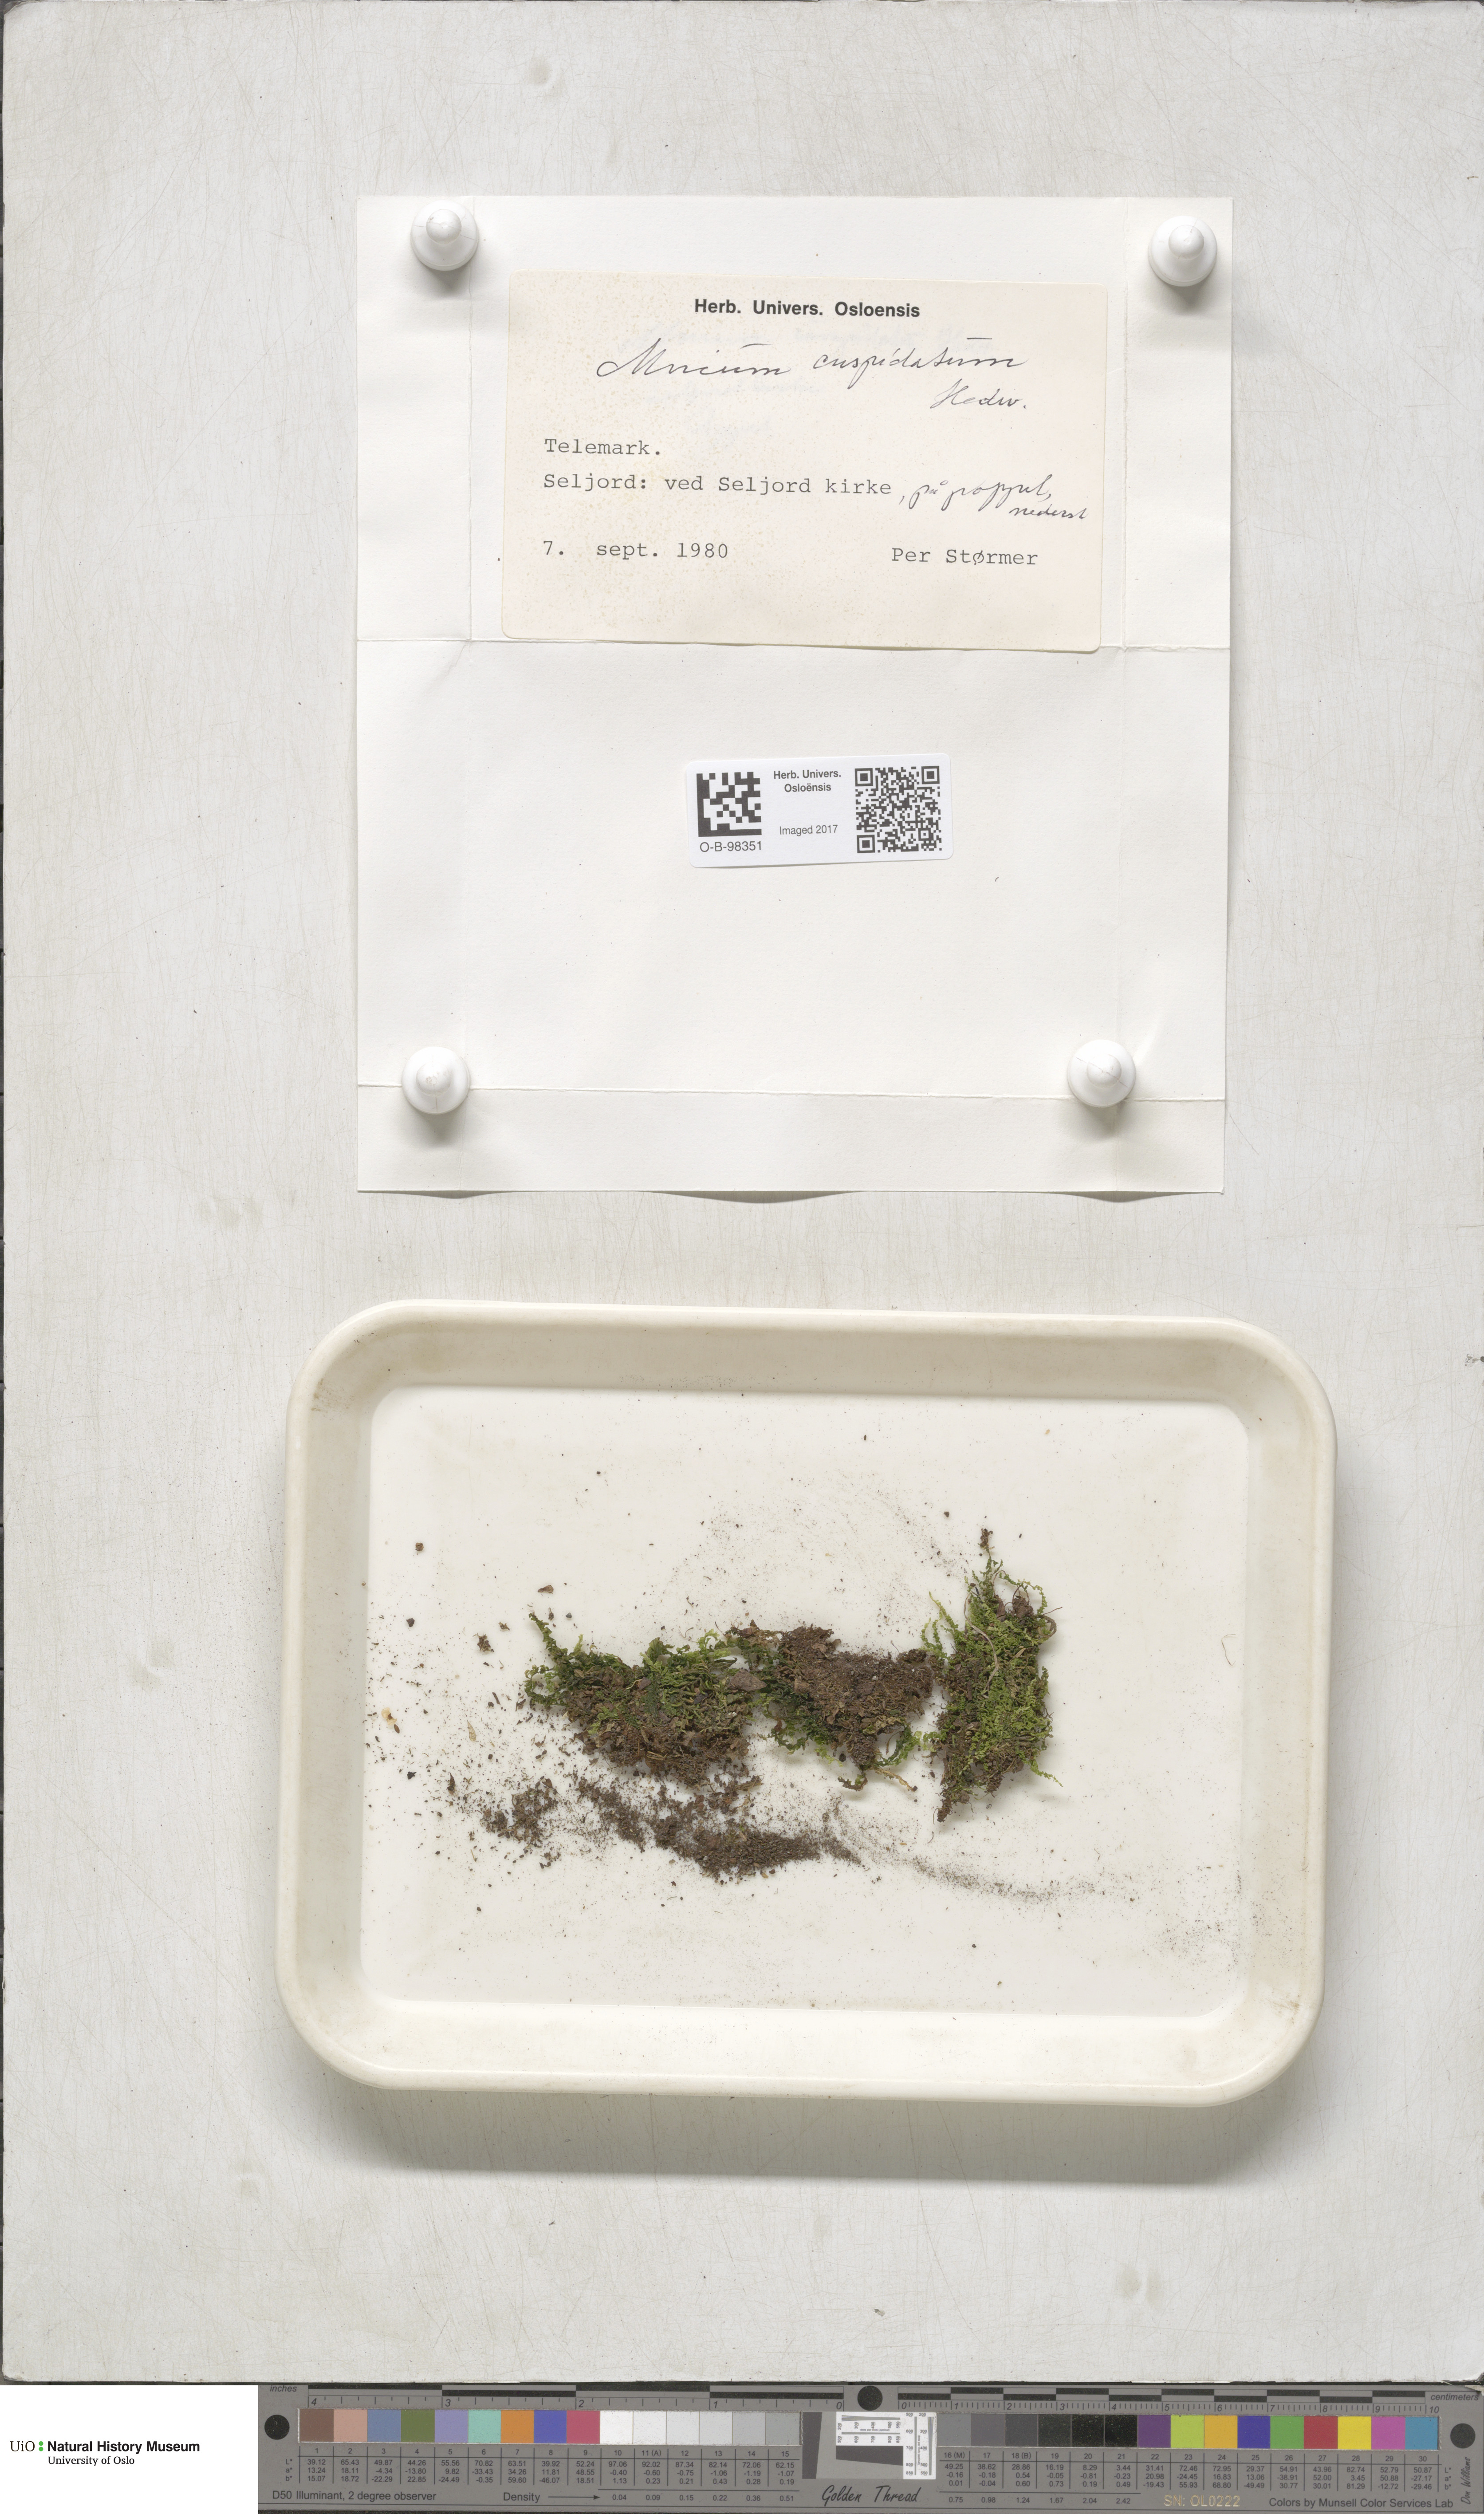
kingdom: Plantae
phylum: Bryophyta
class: Bryopsida
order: Bryales
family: Mniaceae
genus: Plagiomnium
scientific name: Plagiomnium cuspidatum
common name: Woodsy leafy moss
